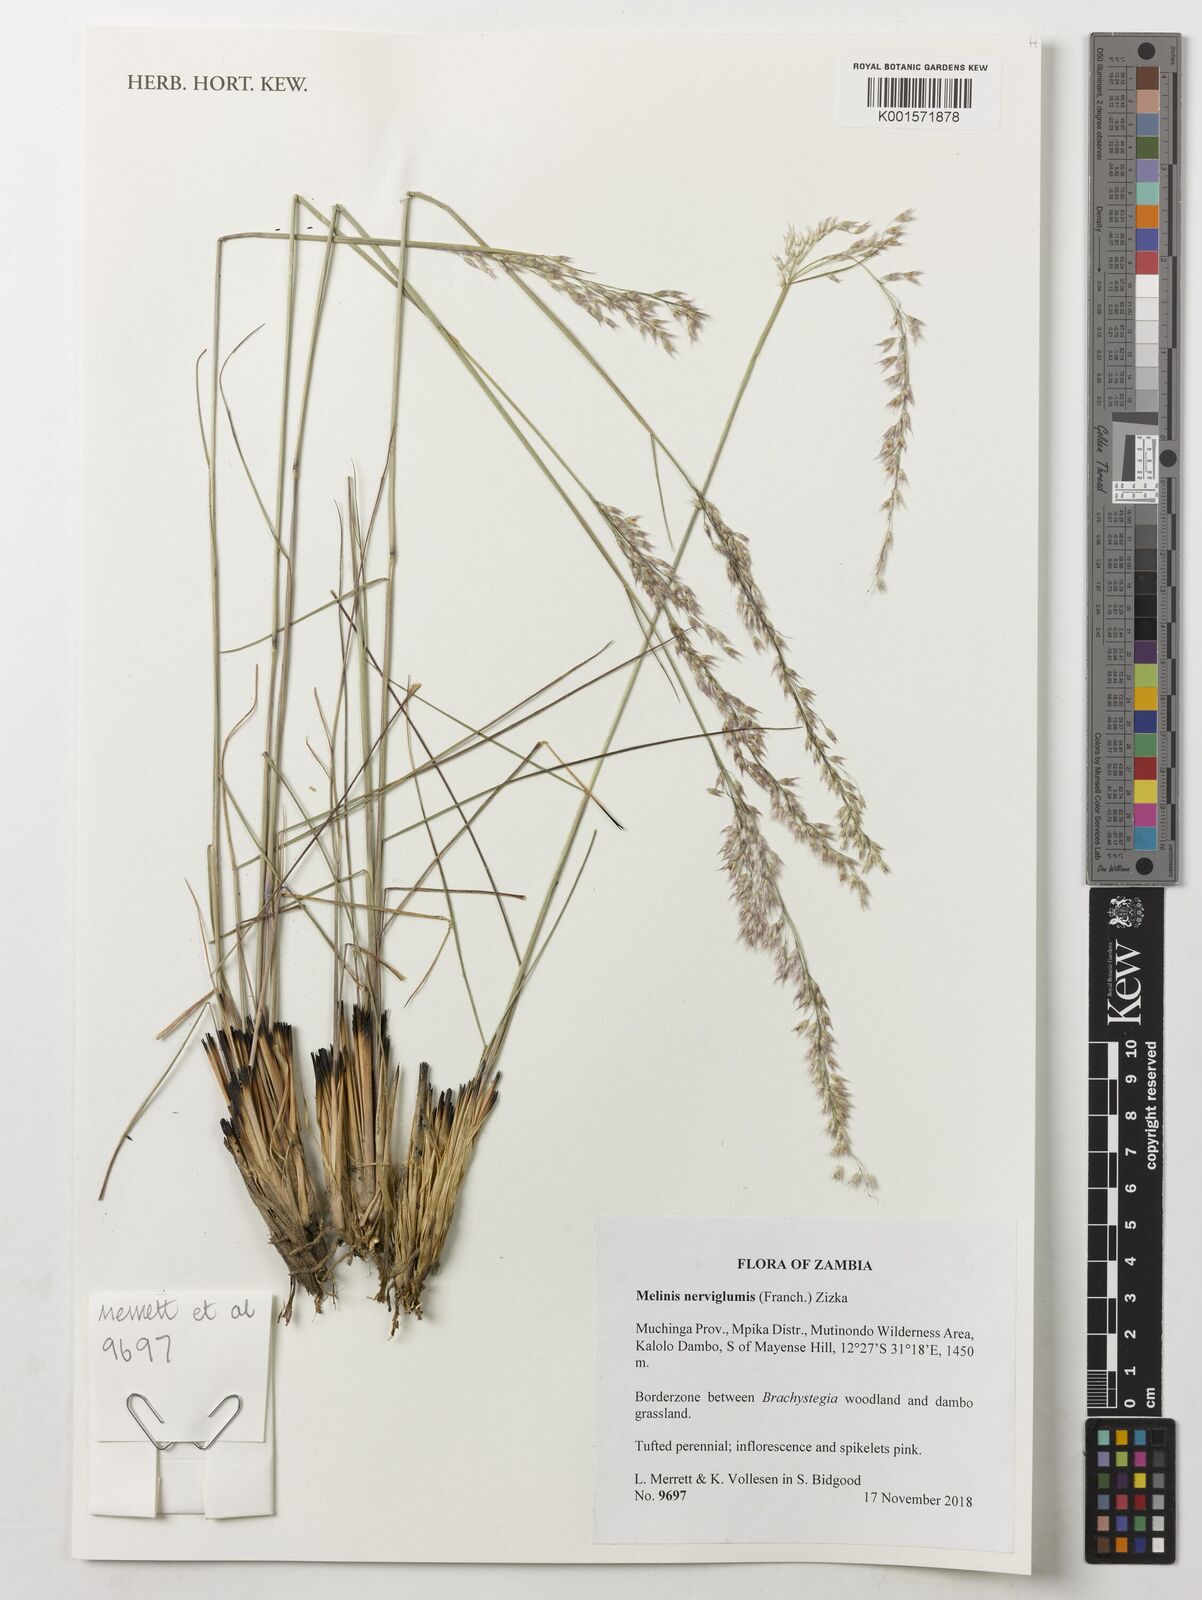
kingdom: Plantae
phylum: Tracheophyta
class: Liliopsida
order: Poales
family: Poaceae
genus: Melinis
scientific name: Melinis nerviglumis
